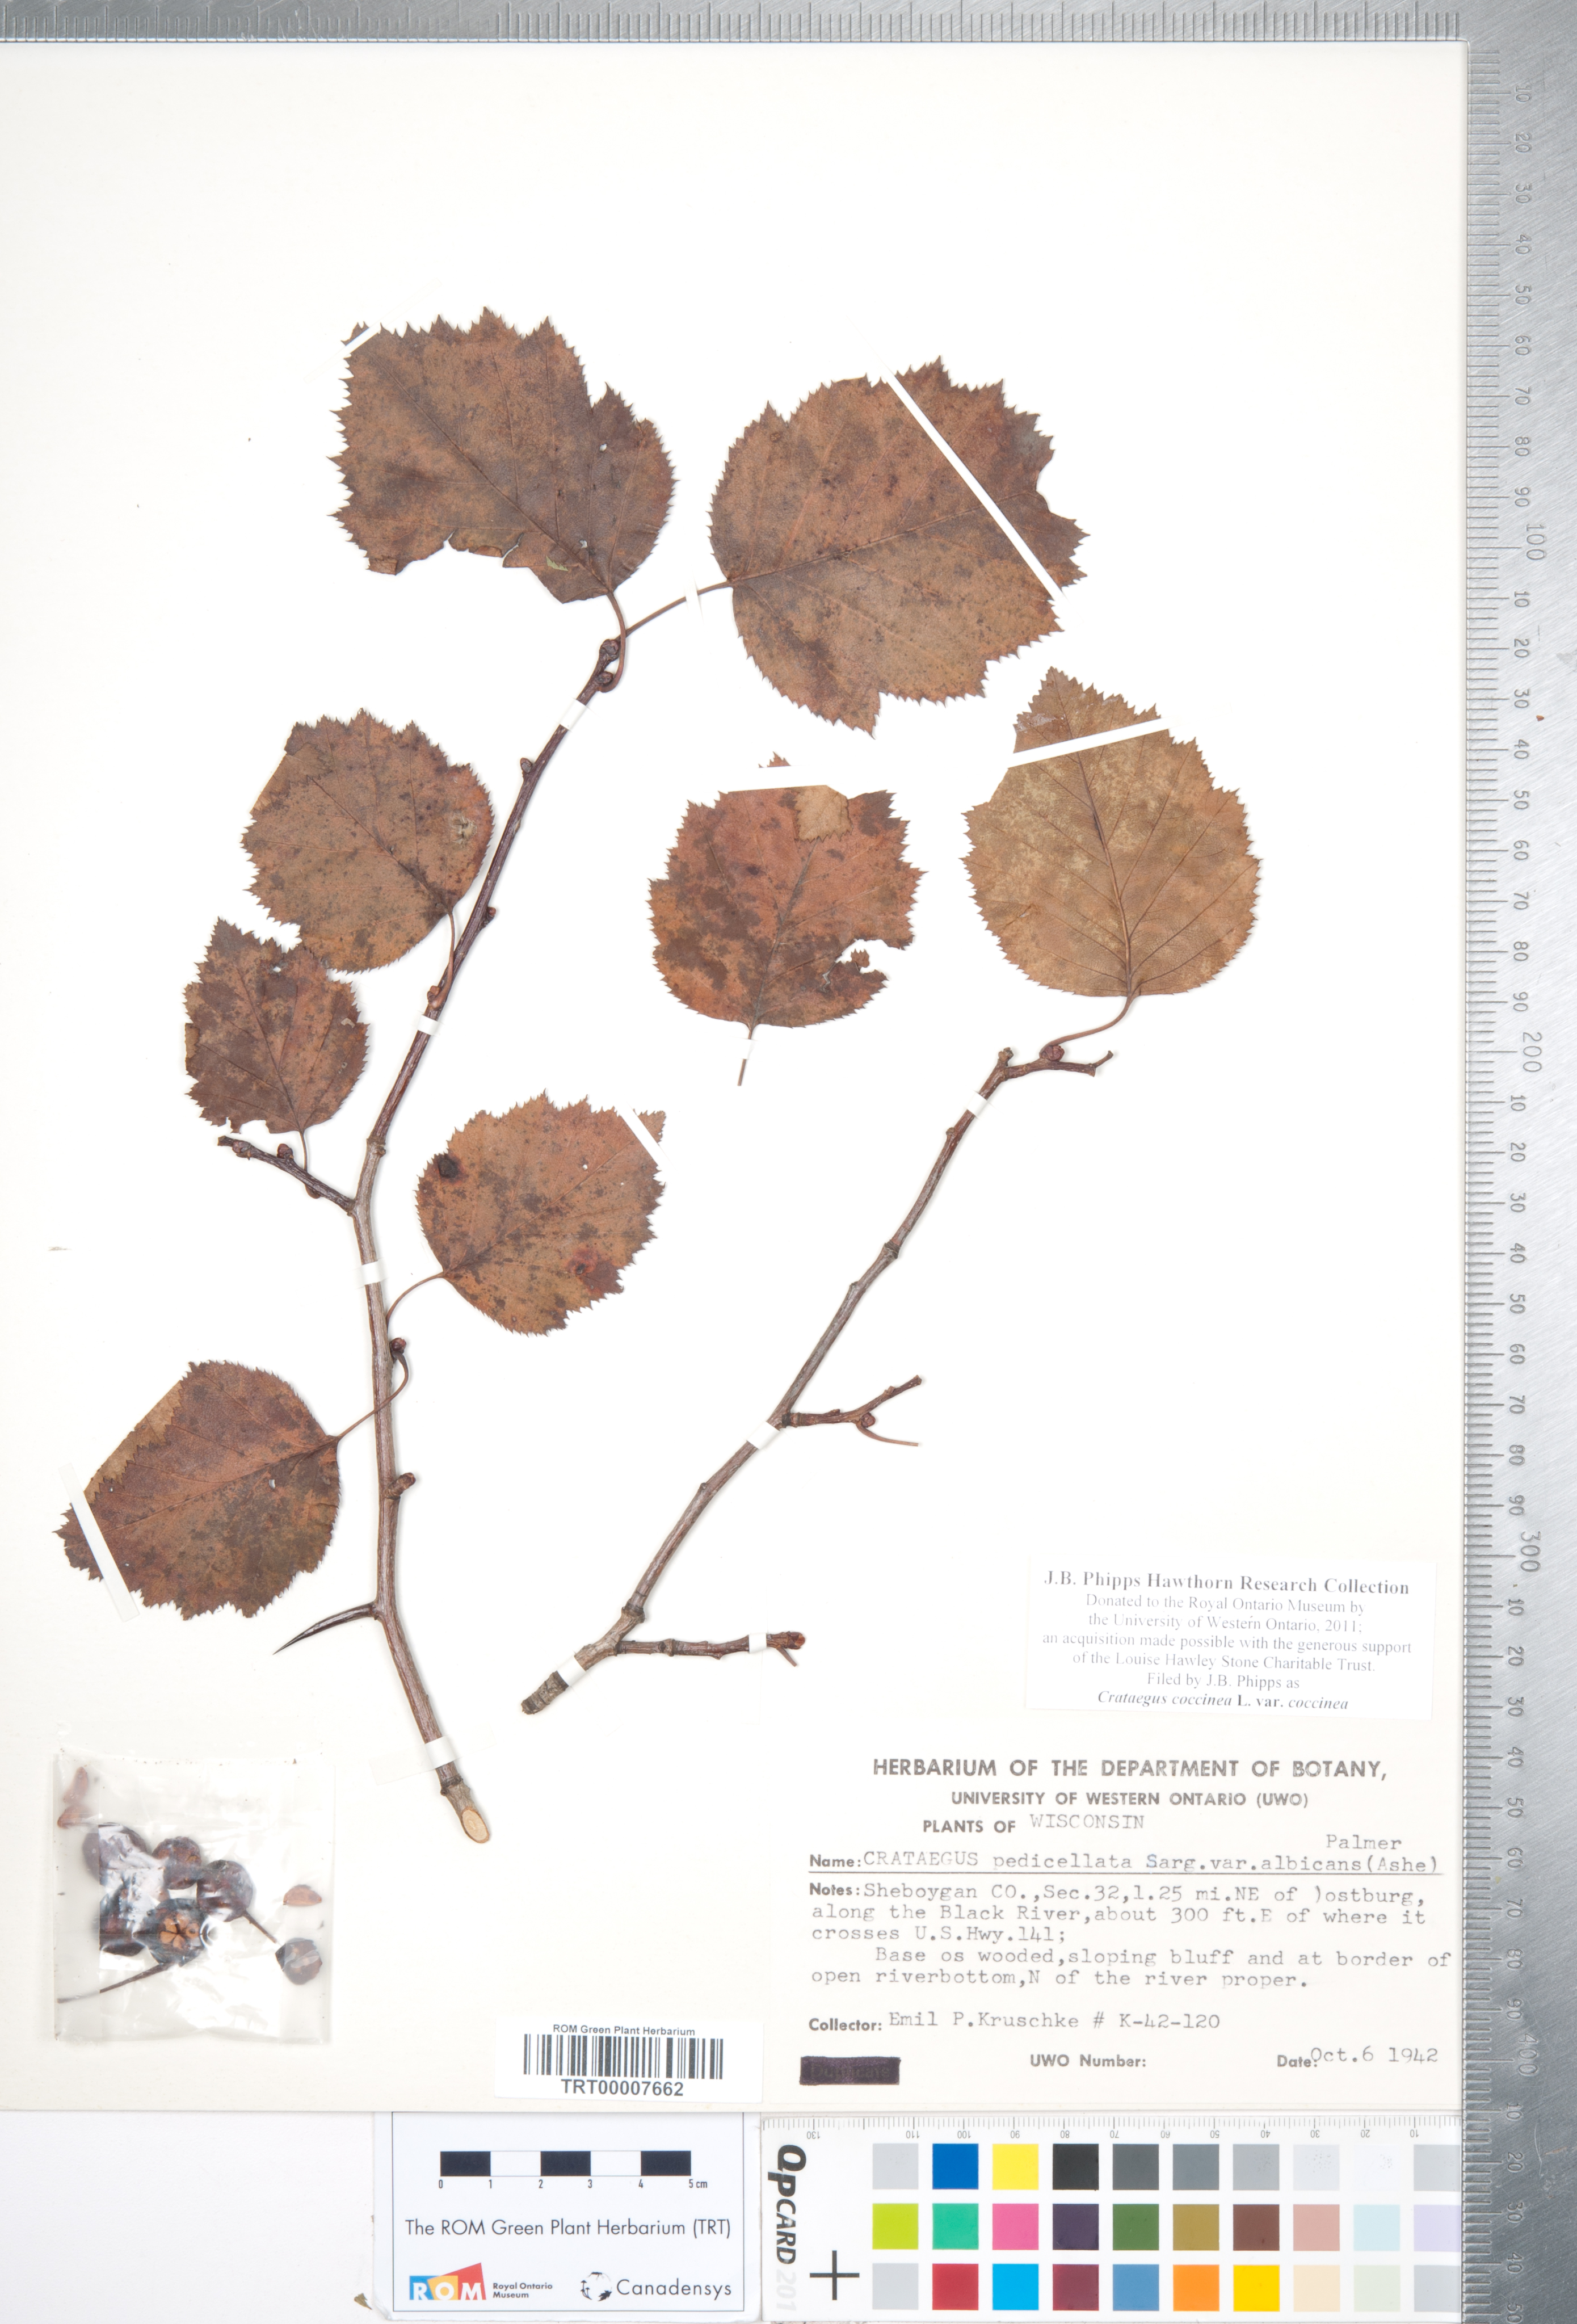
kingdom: Plantae
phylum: Tracheophyta
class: Magnoliopsida
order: Rosales
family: Rosaceae
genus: Crataegus
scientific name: Crataegus coccinea
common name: Scarlet hawthorn
